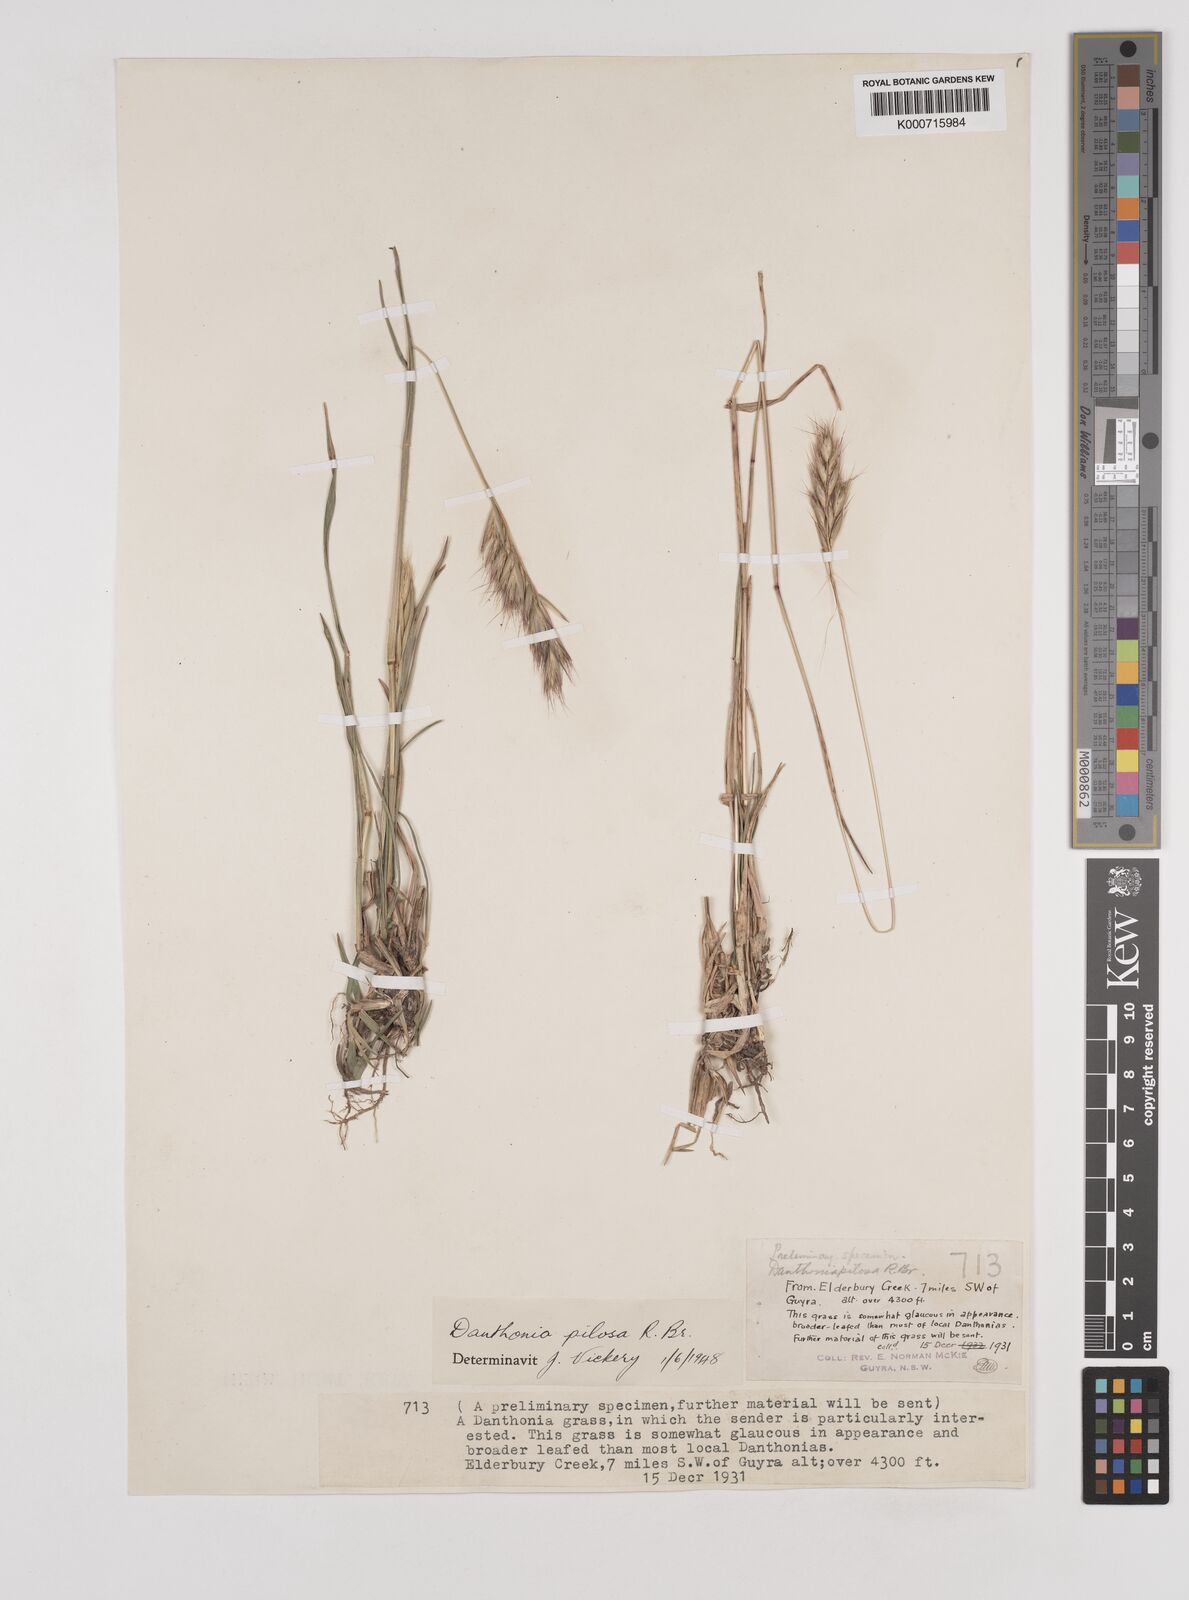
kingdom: Plantae
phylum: Tracheophyta
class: Liliopsida
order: Poales
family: Poaceae
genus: Rytidosperma
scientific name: Rytidosperma pilosum
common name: Hairy wallaby grass
